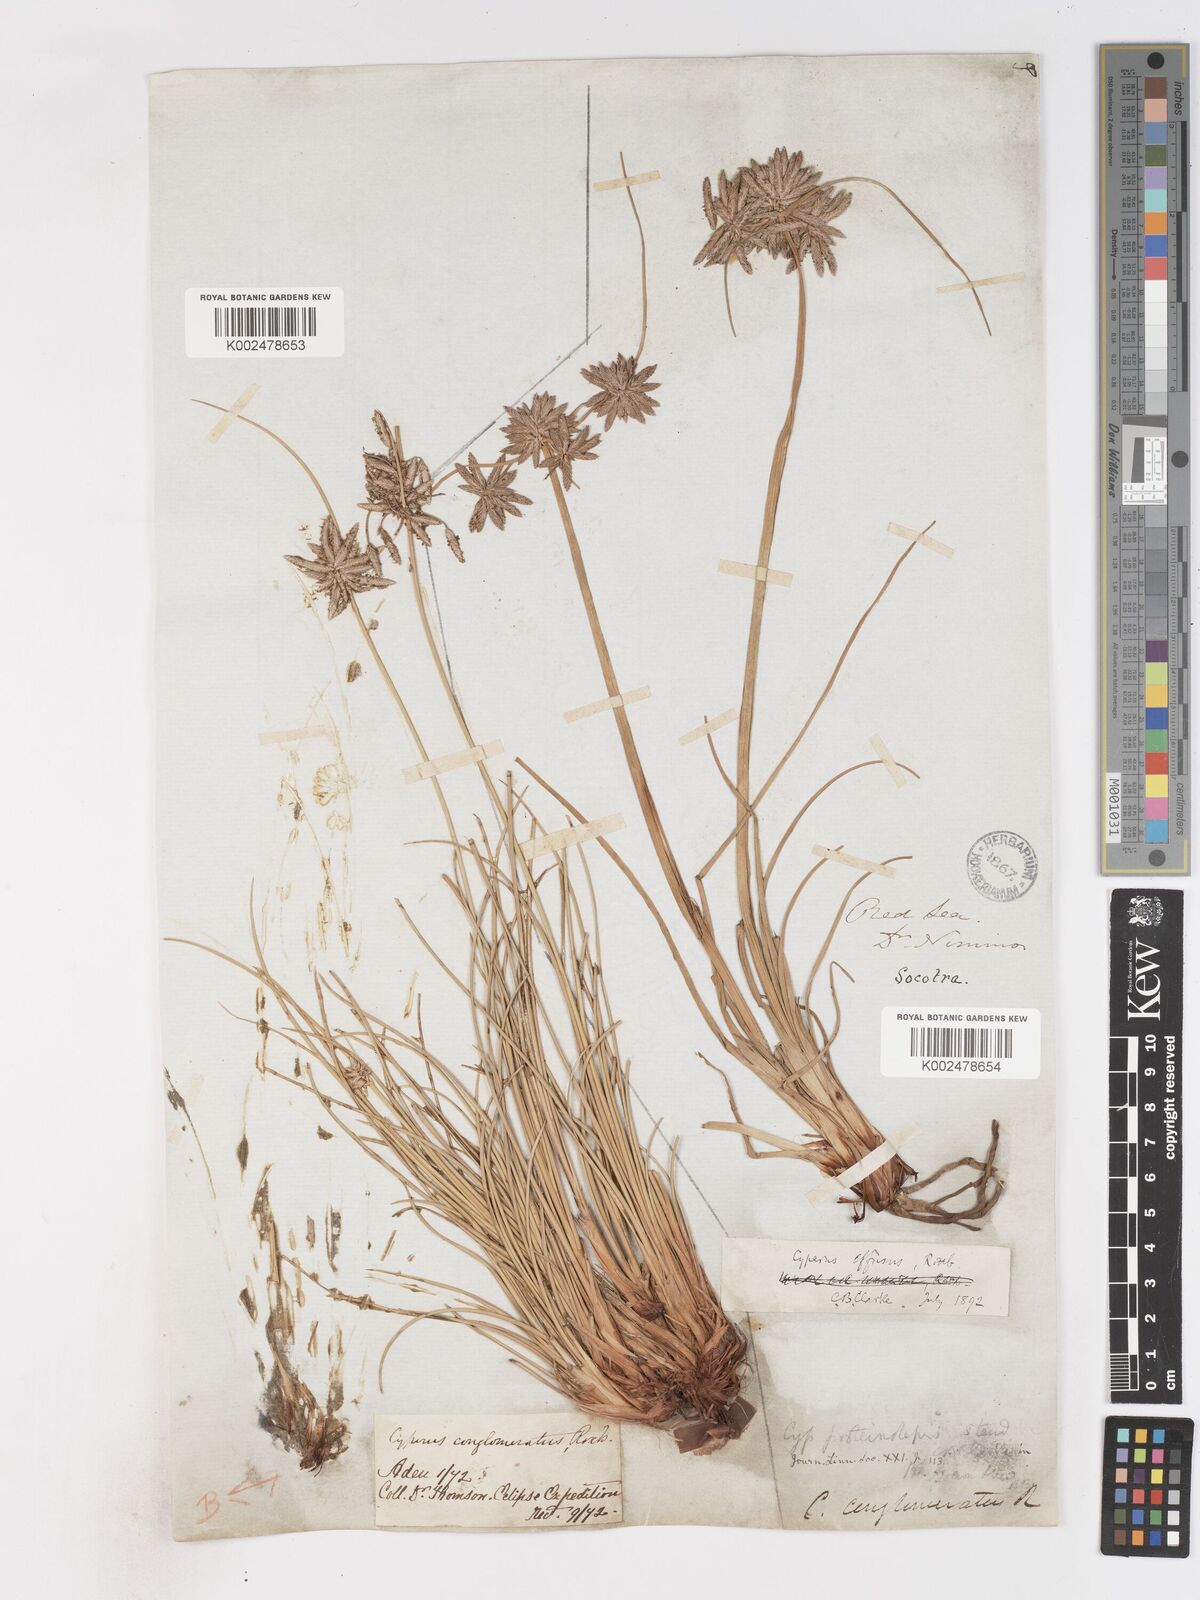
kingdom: Plantae
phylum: Tracheophyta
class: Liliopsida
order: Poales
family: Cyperaceae
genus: Cyperus
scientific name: Cyperus conglomeratus
